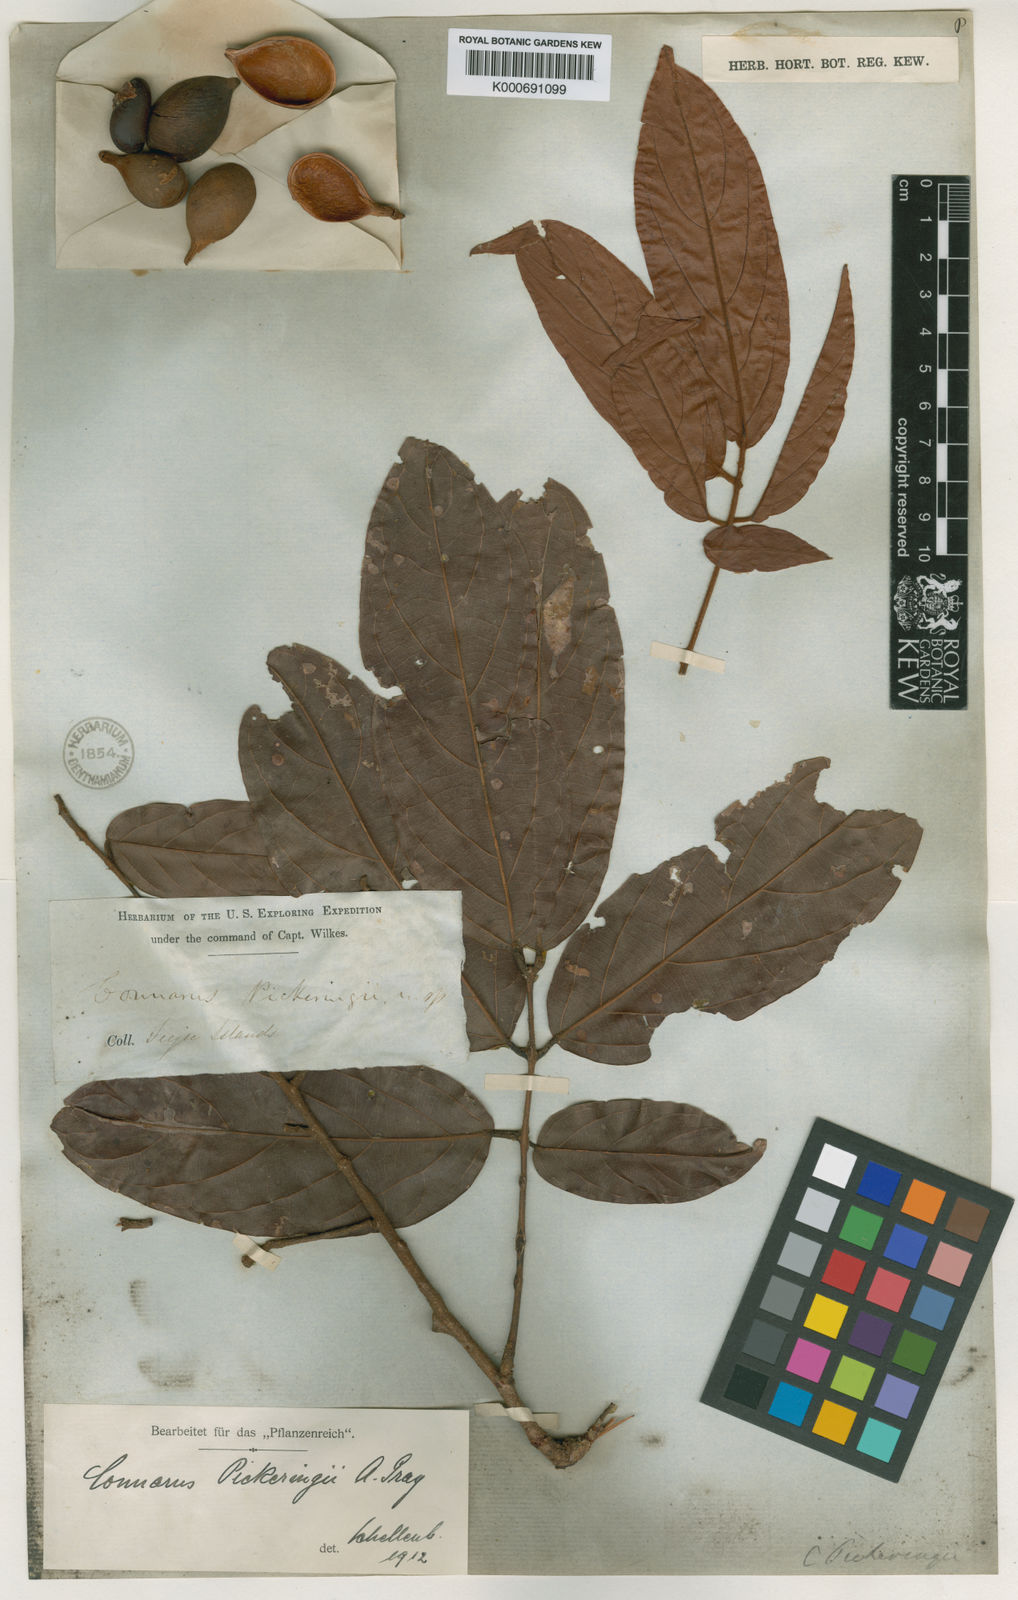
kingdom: Plantae
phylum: Tracheophyta
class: Magnoliopsida
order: Oxalidales
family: Connaraceae
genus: Connarus
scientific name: Connarus pickeringii
